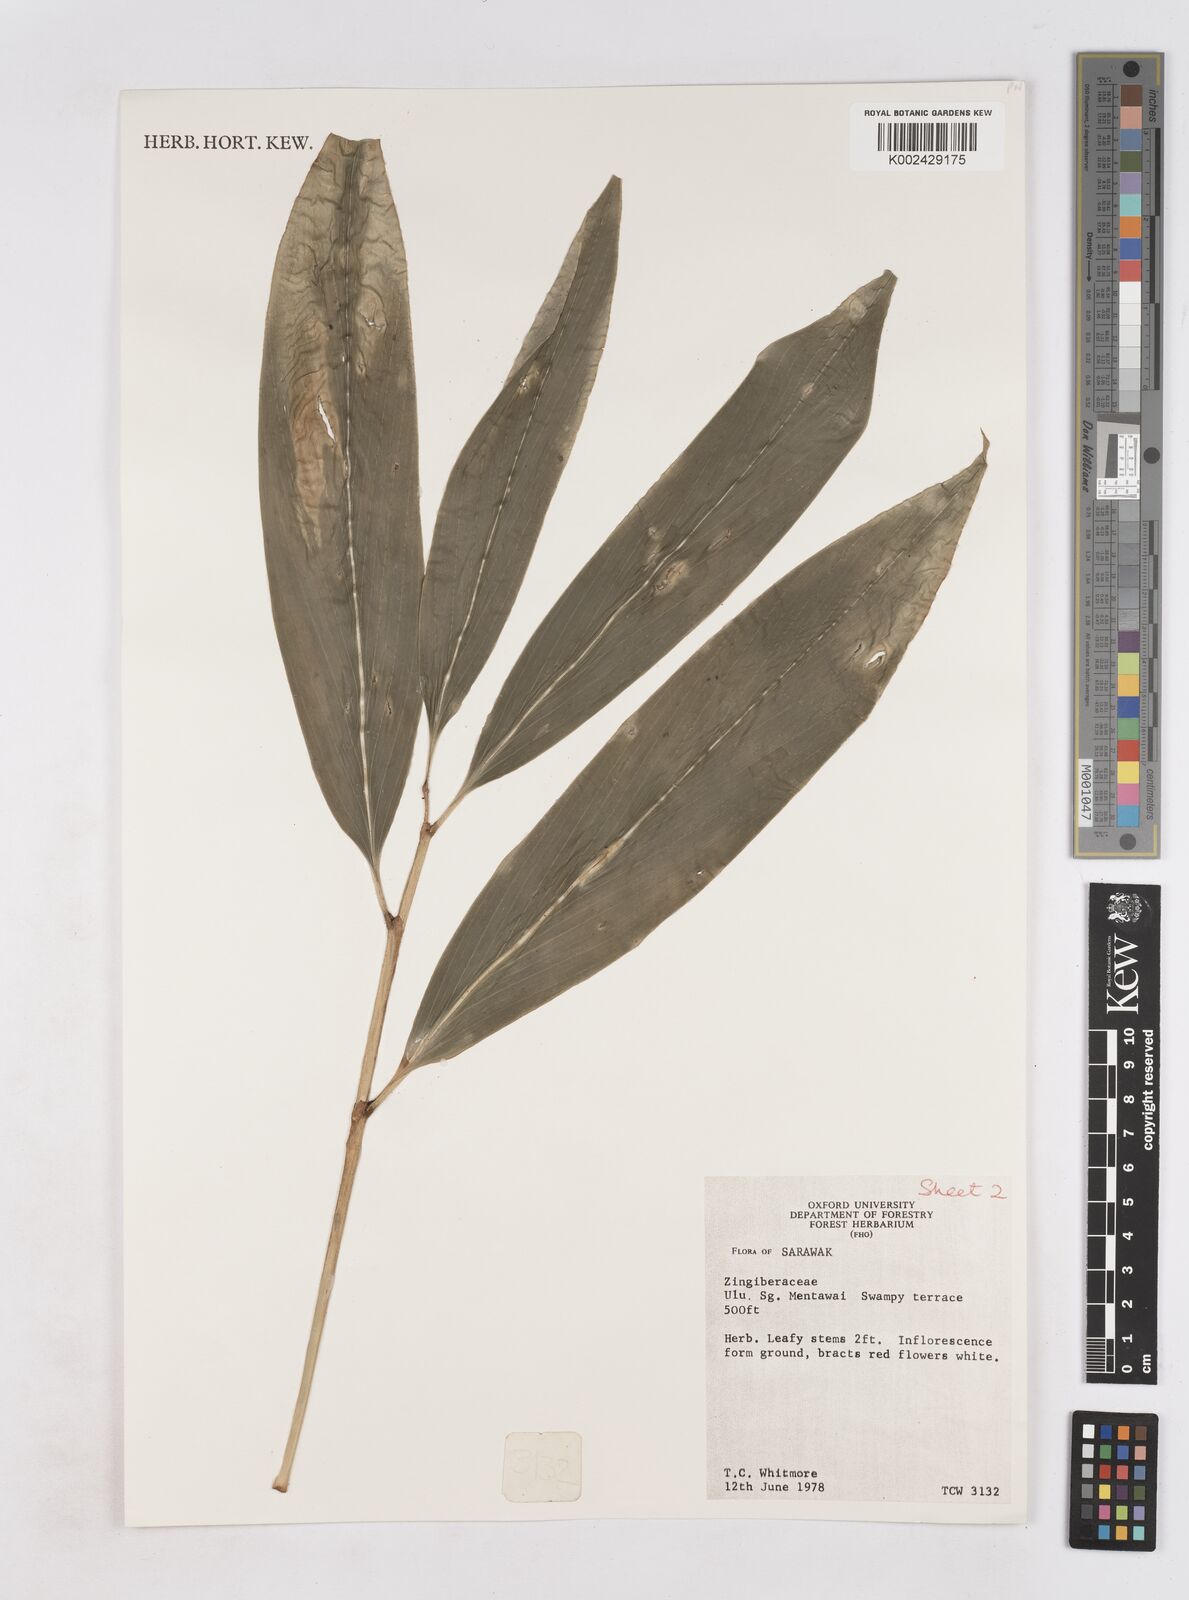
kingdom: Plantae
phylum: Tracheophyta
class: Liliopsida
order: Zingiberales
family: Zingiberaceae
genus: Zingiber
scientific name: Zingiber
